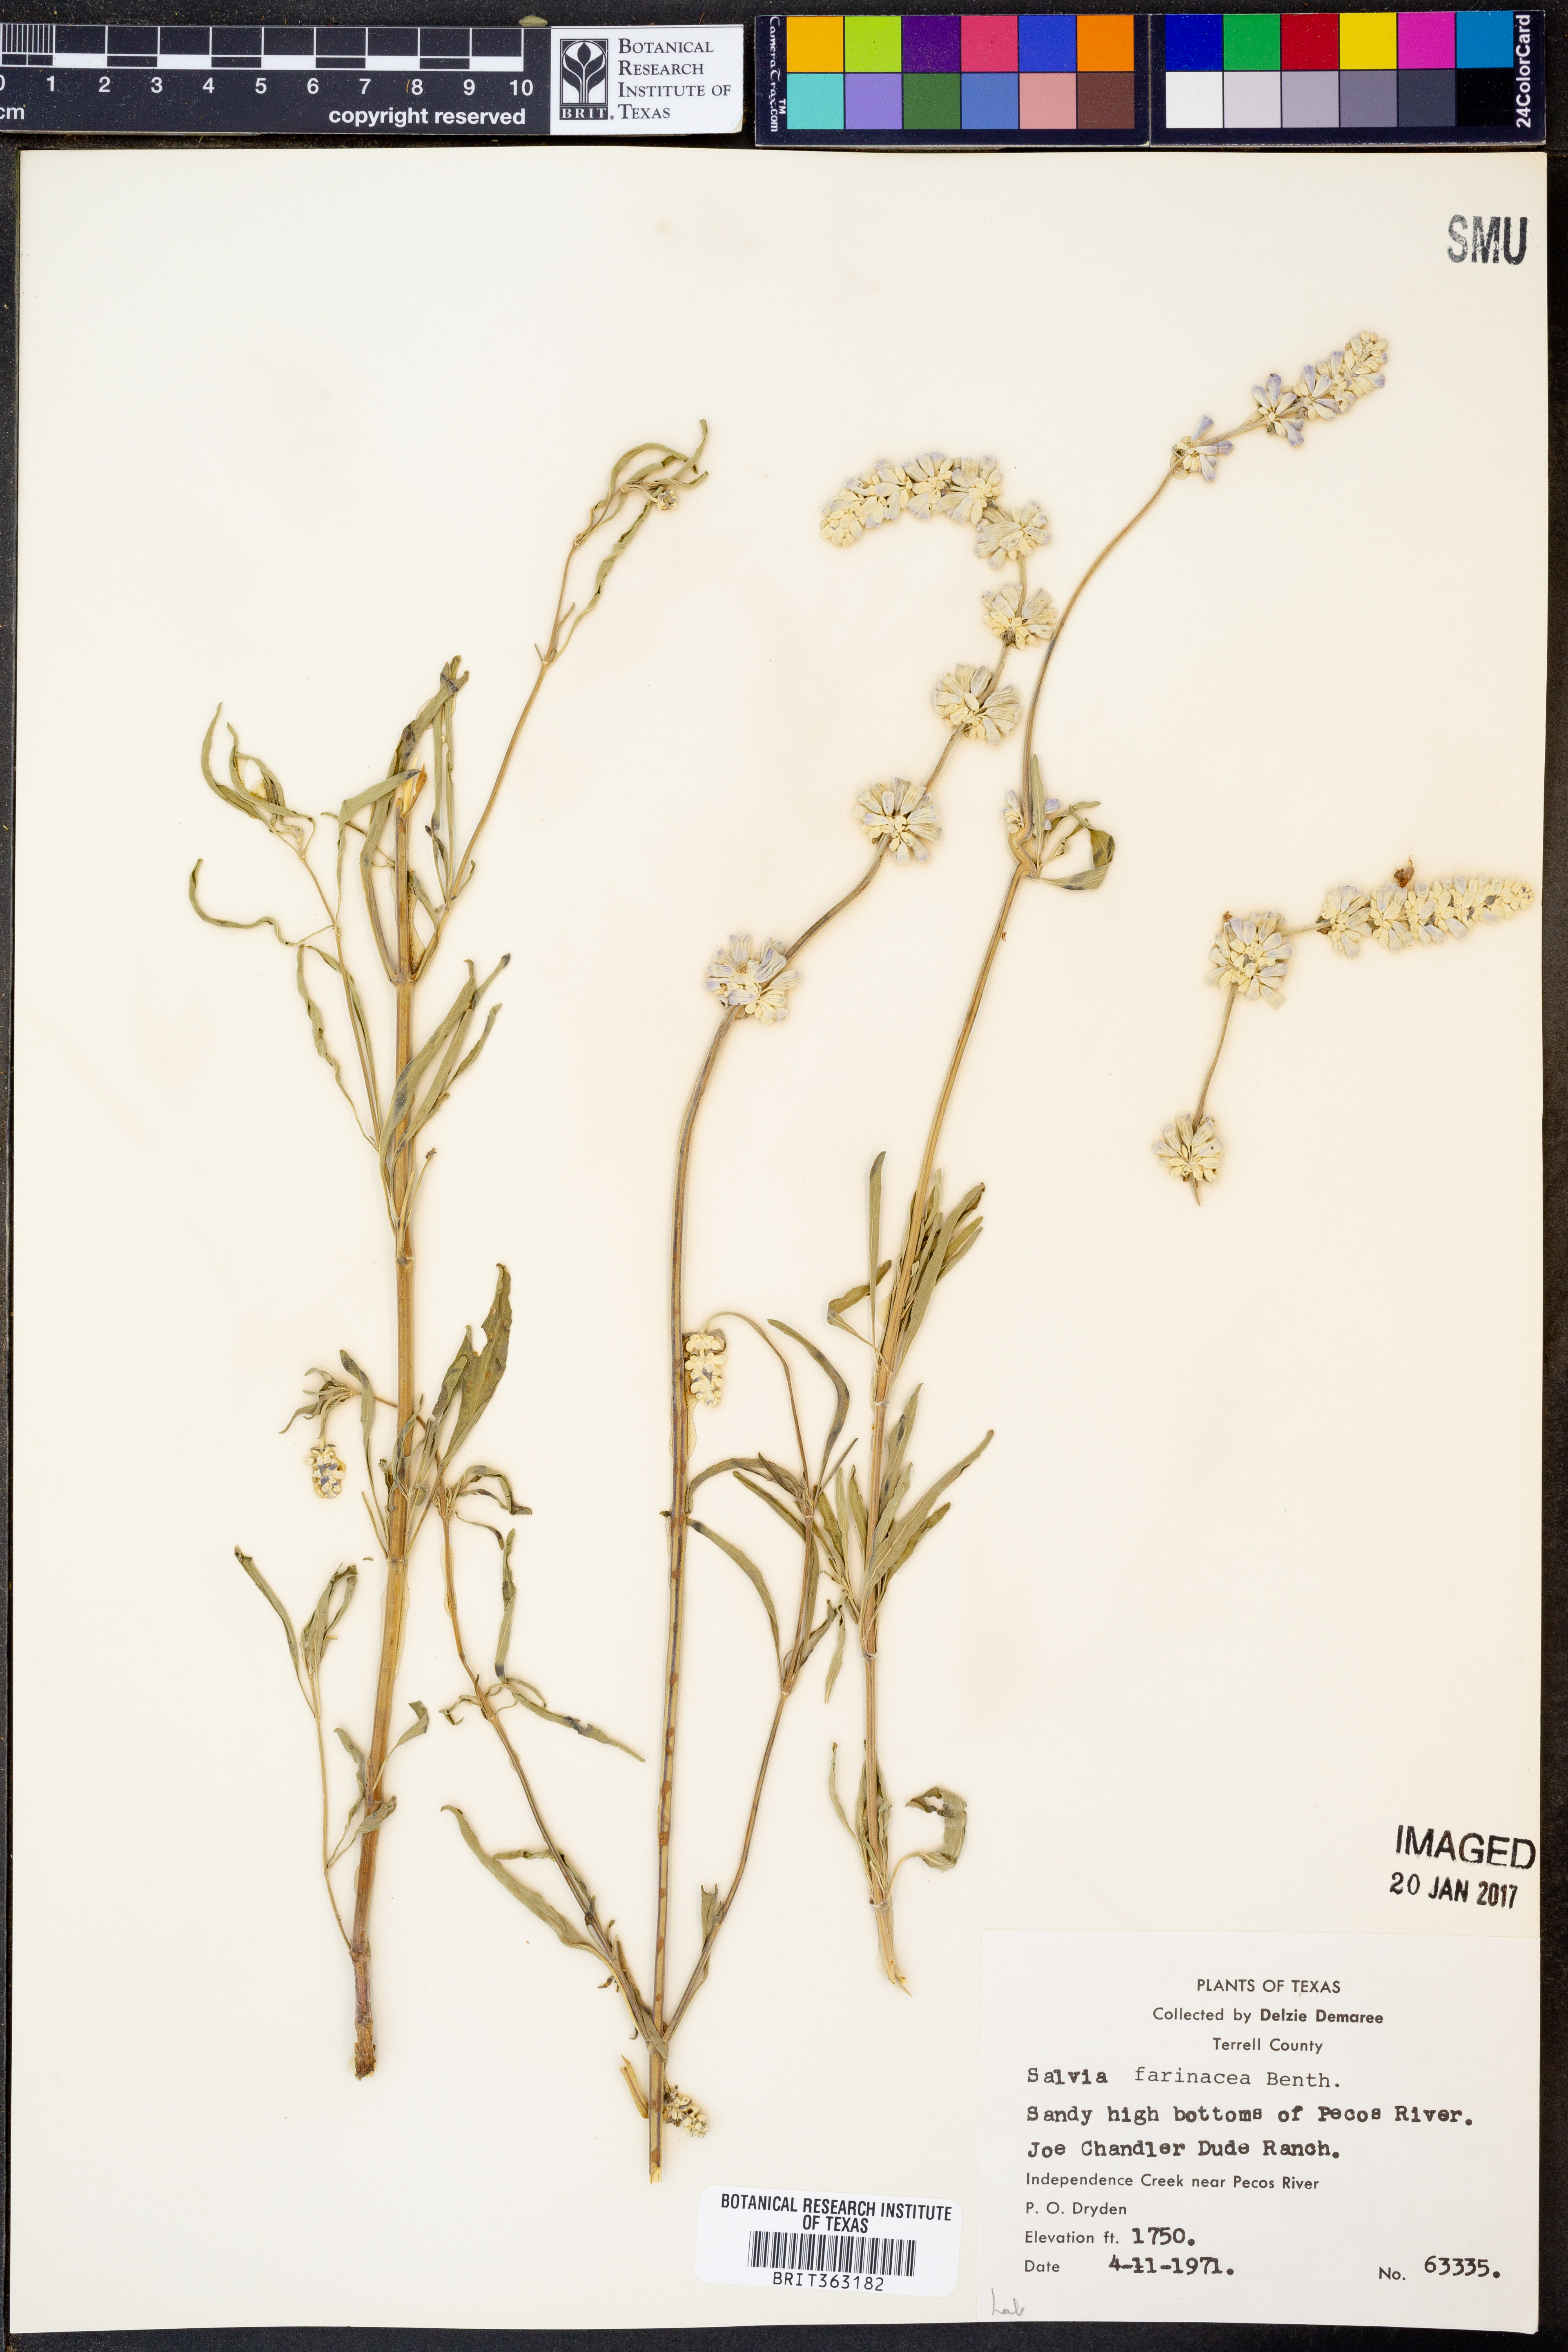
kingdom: Plantae
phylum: Tracheophyta
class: Magnoliopsida
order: Lamiales
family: Lamiaceae
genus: Salvia
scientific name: Salvia farinacea
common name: Mealy sage
